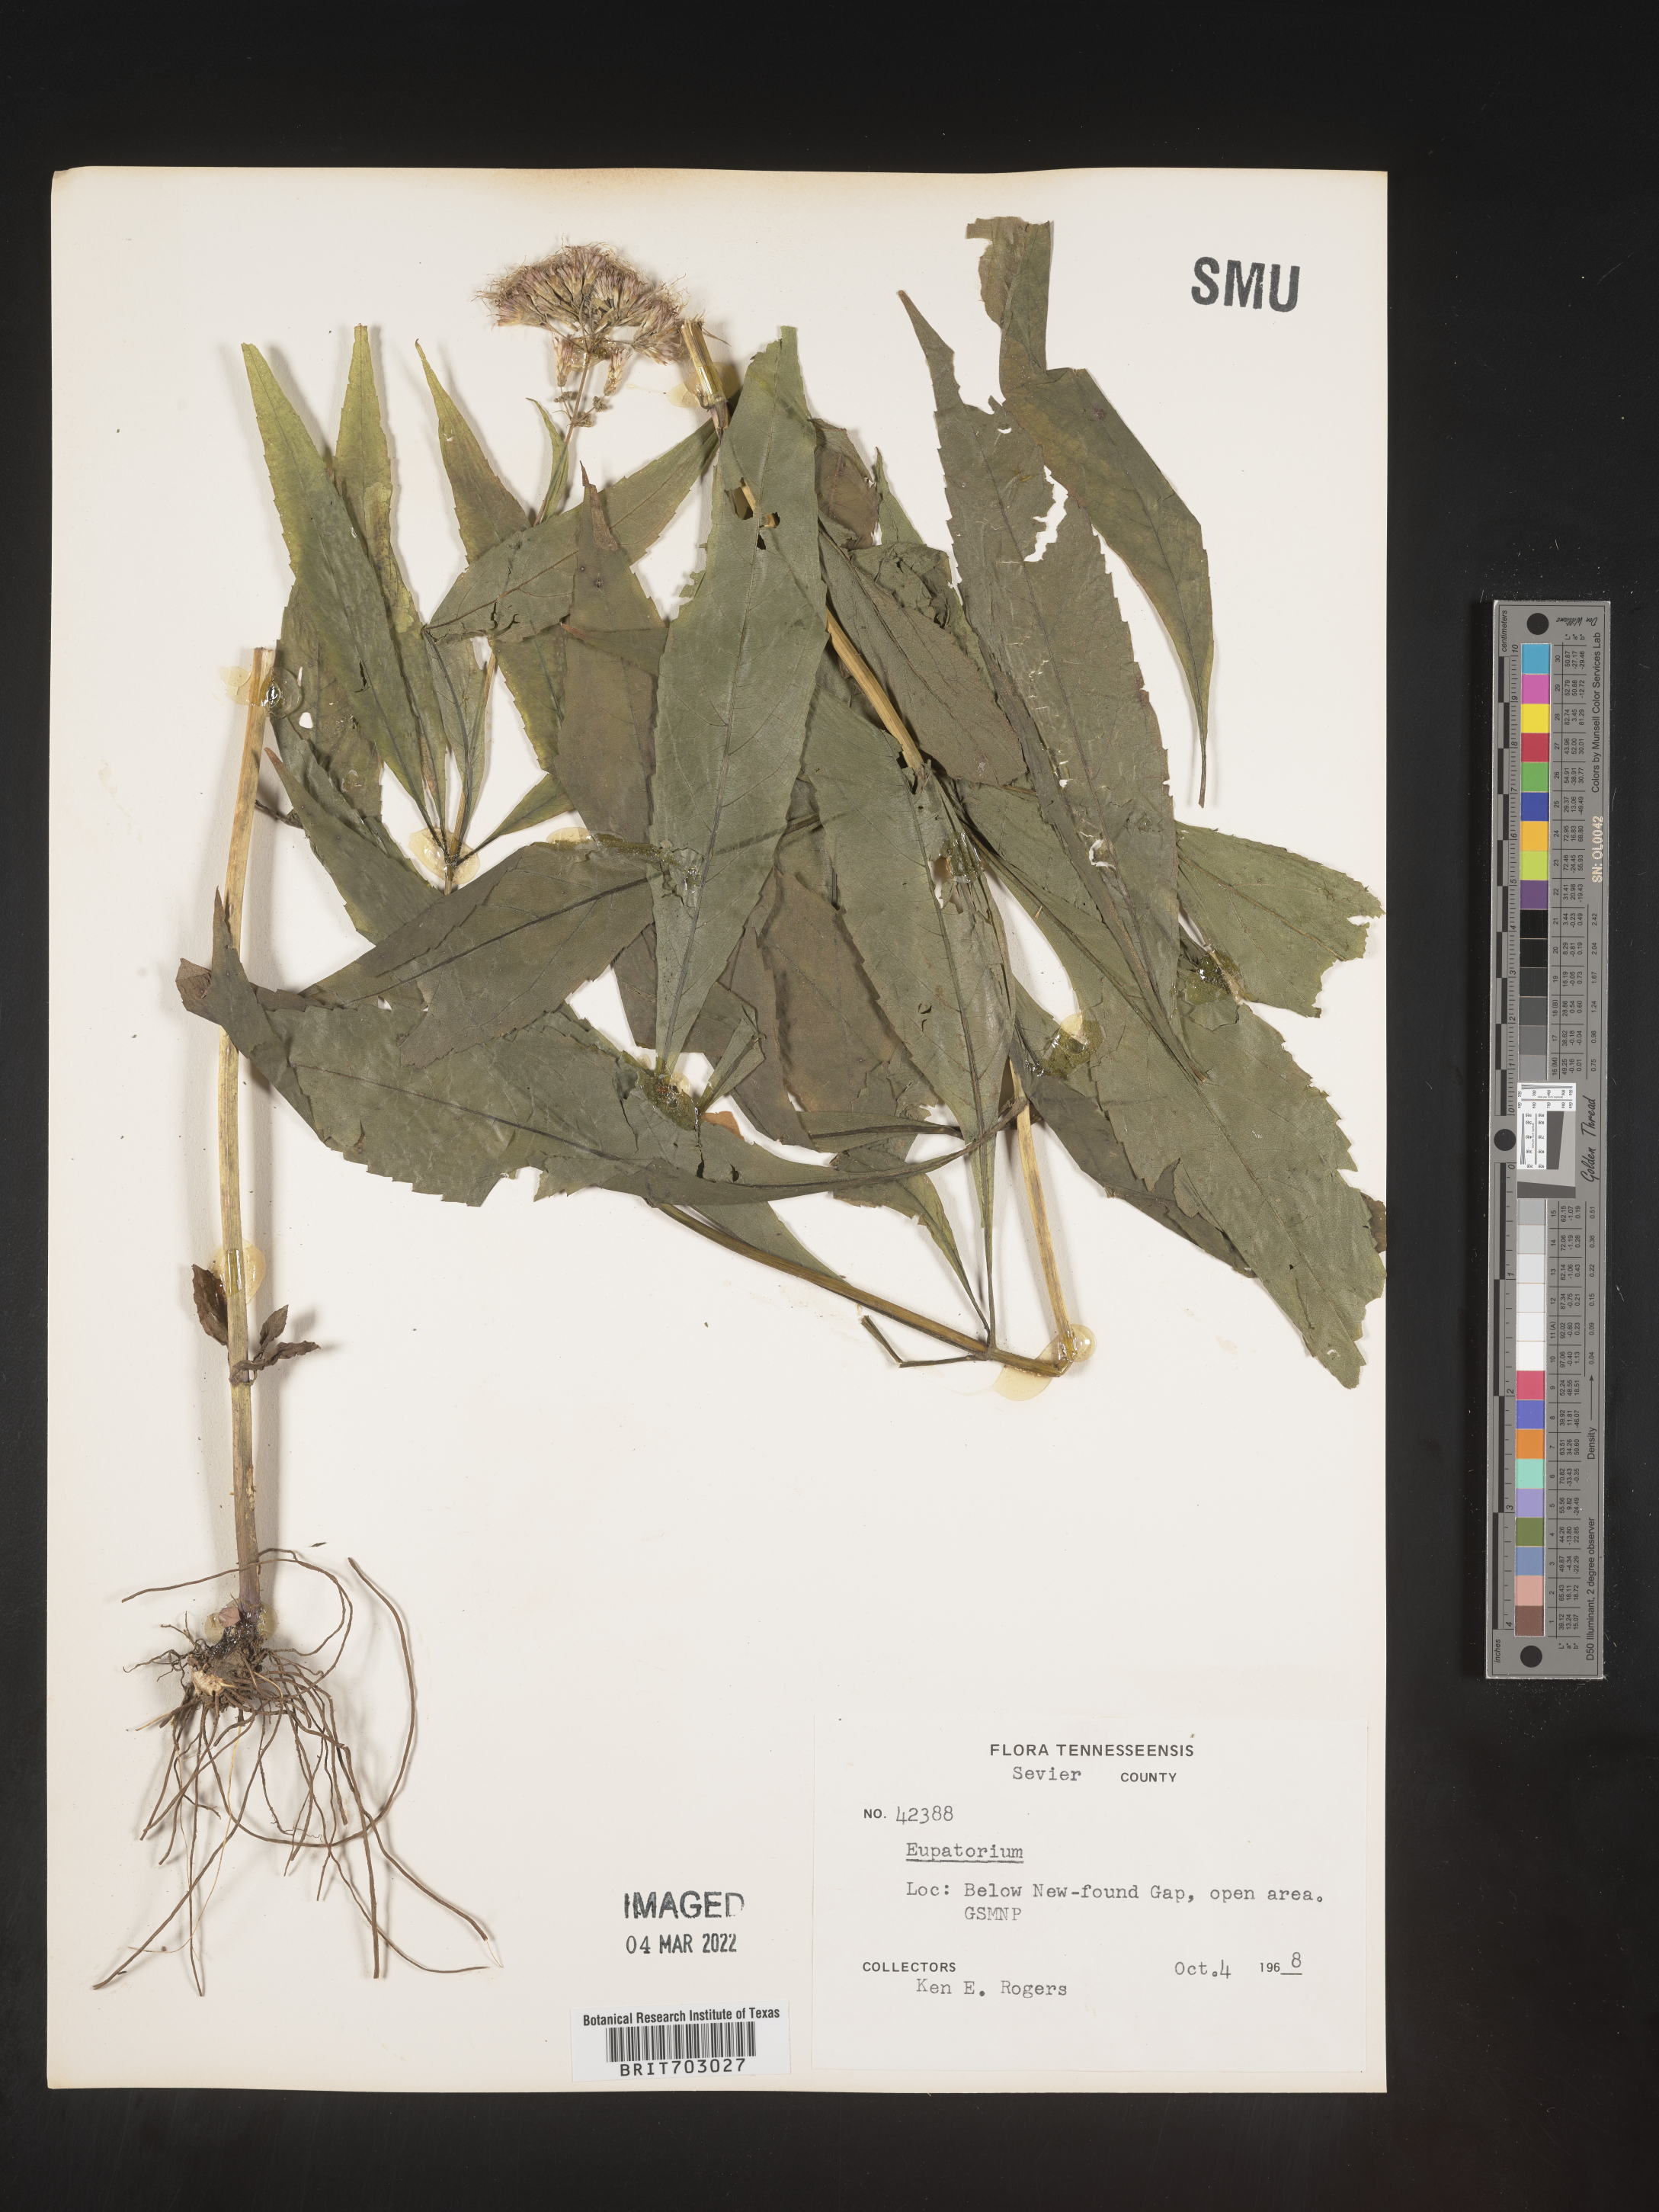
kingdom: Plantae
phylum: Tracheophyta
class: Magnoliopsida
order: Asterales
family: Asteraceae
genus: Eupatorium
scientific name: Eupatorium
